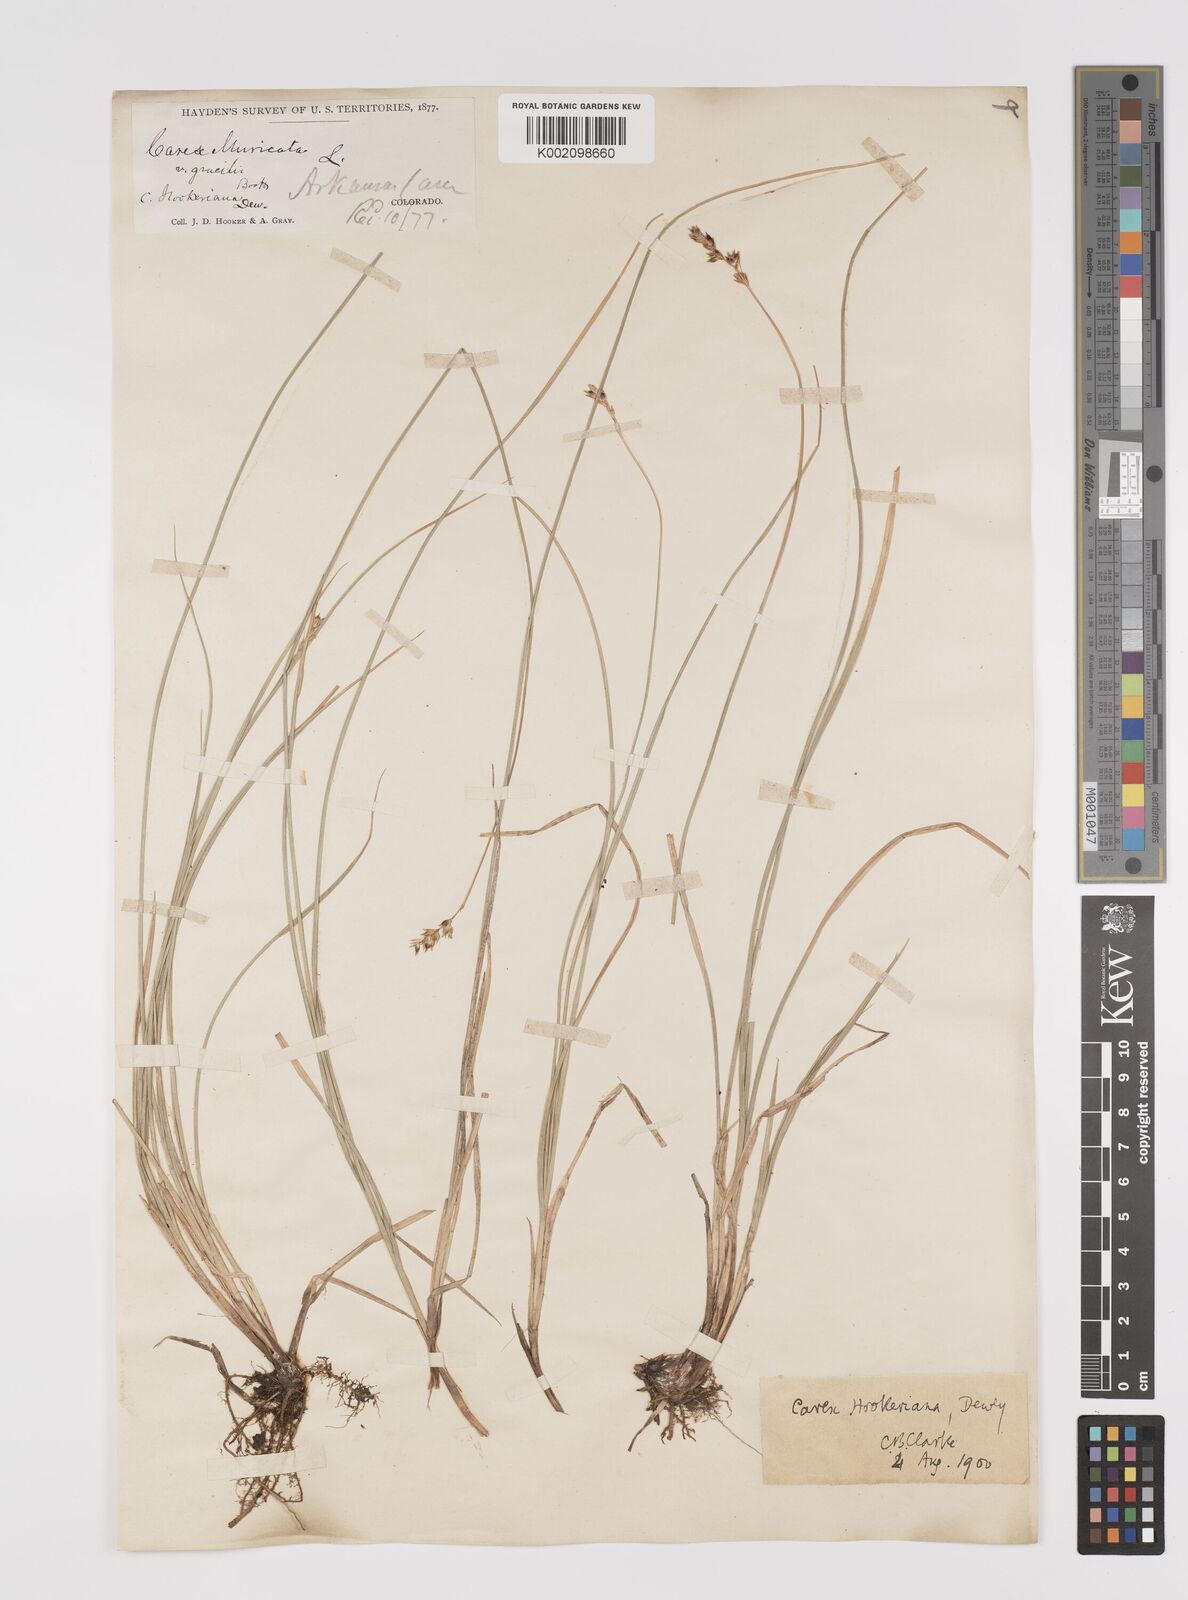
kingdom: Plantae
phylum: Tracheophyta
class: Liliopsida
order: Poales
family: Cyperaceae
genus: Carex
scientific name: Carex hookeriana
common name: Hooker's sedge
